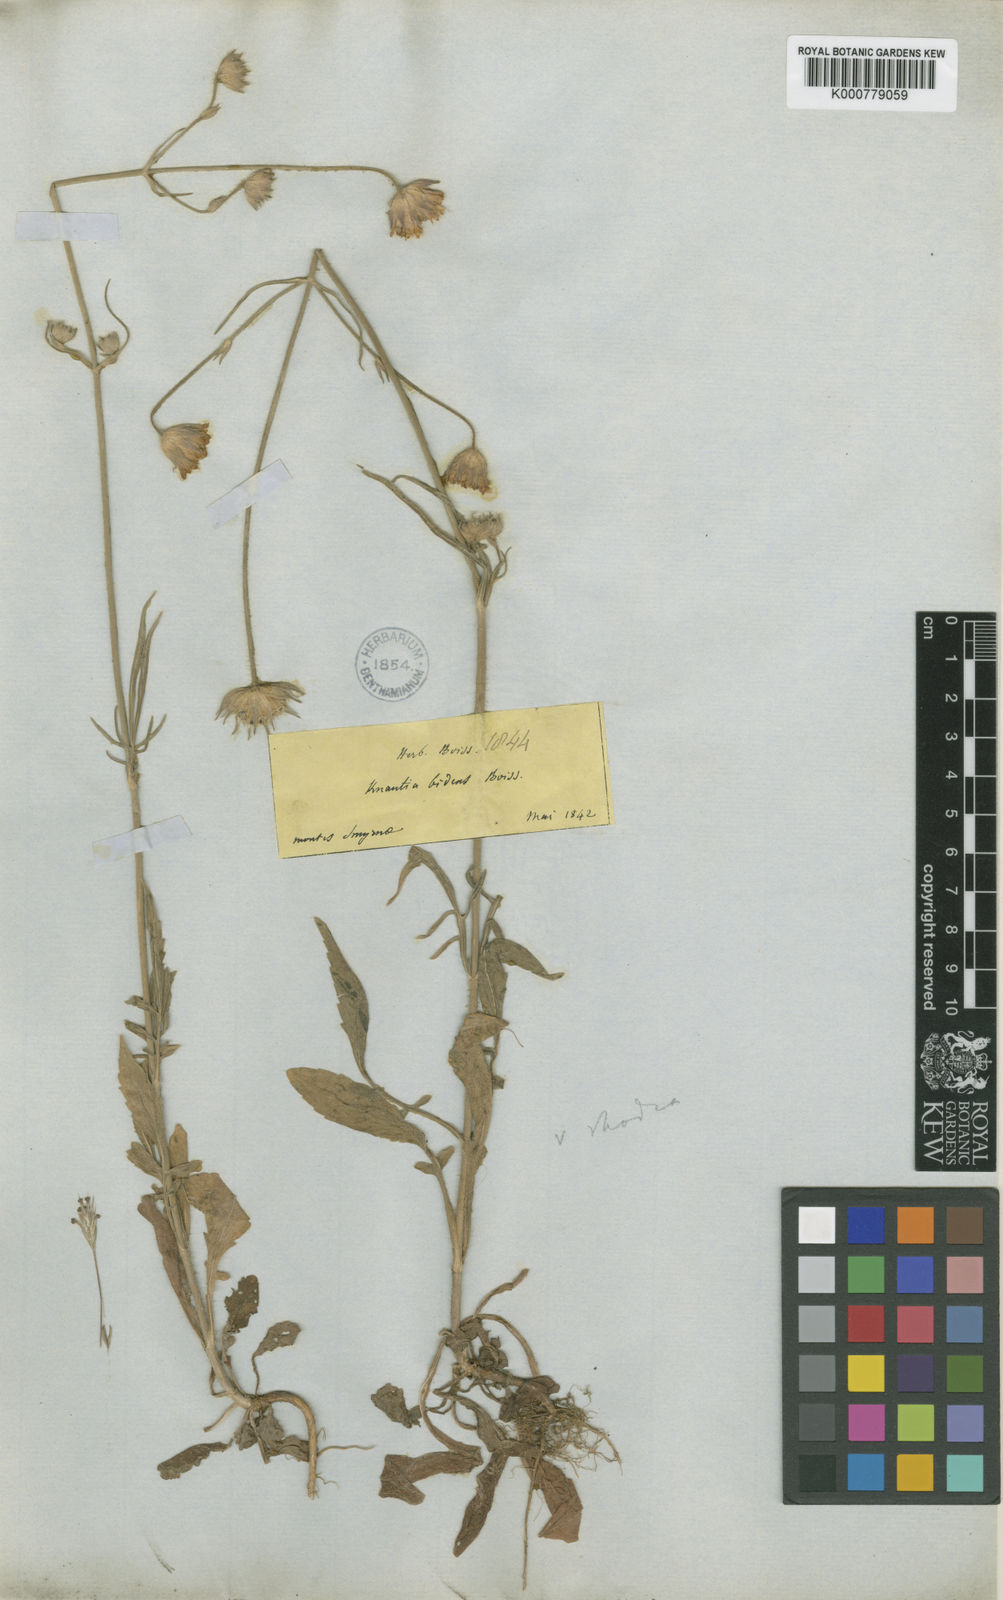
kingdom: Plantae
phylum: Tracheophyta
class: Magnoliopsida
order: Dipsacales
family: Caprifoliaceae
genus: Knautia
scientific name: Knautia
